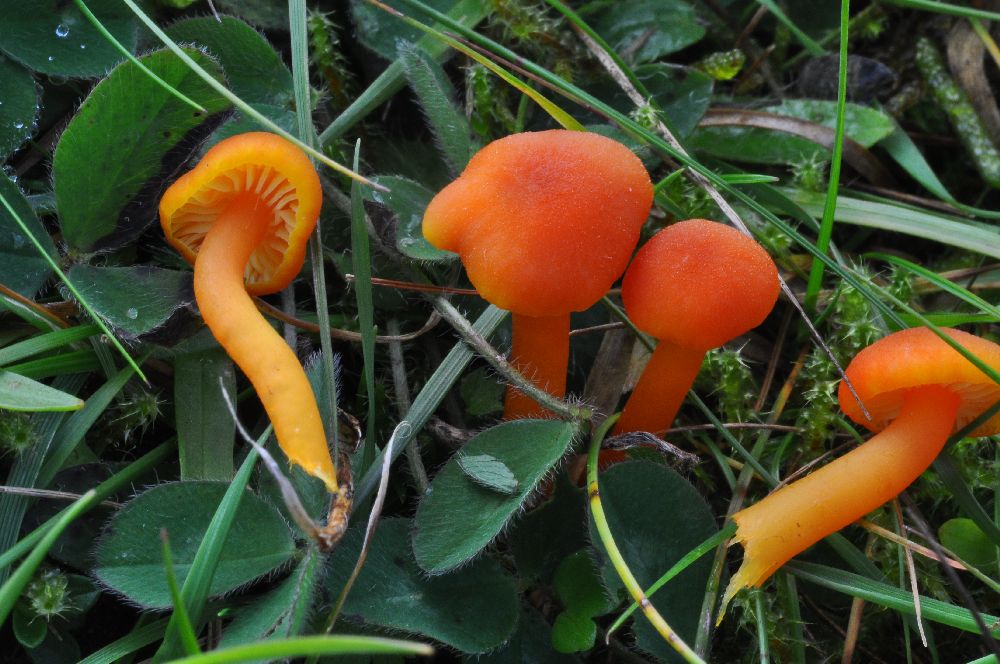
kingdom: Fungi
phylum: Basidiomycota
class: Agaricomycetes
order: Agaricales
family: Hygrophoraceae
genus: Hygrocybe
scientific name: Hygrocybe miniata
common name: mønje-vokshat
